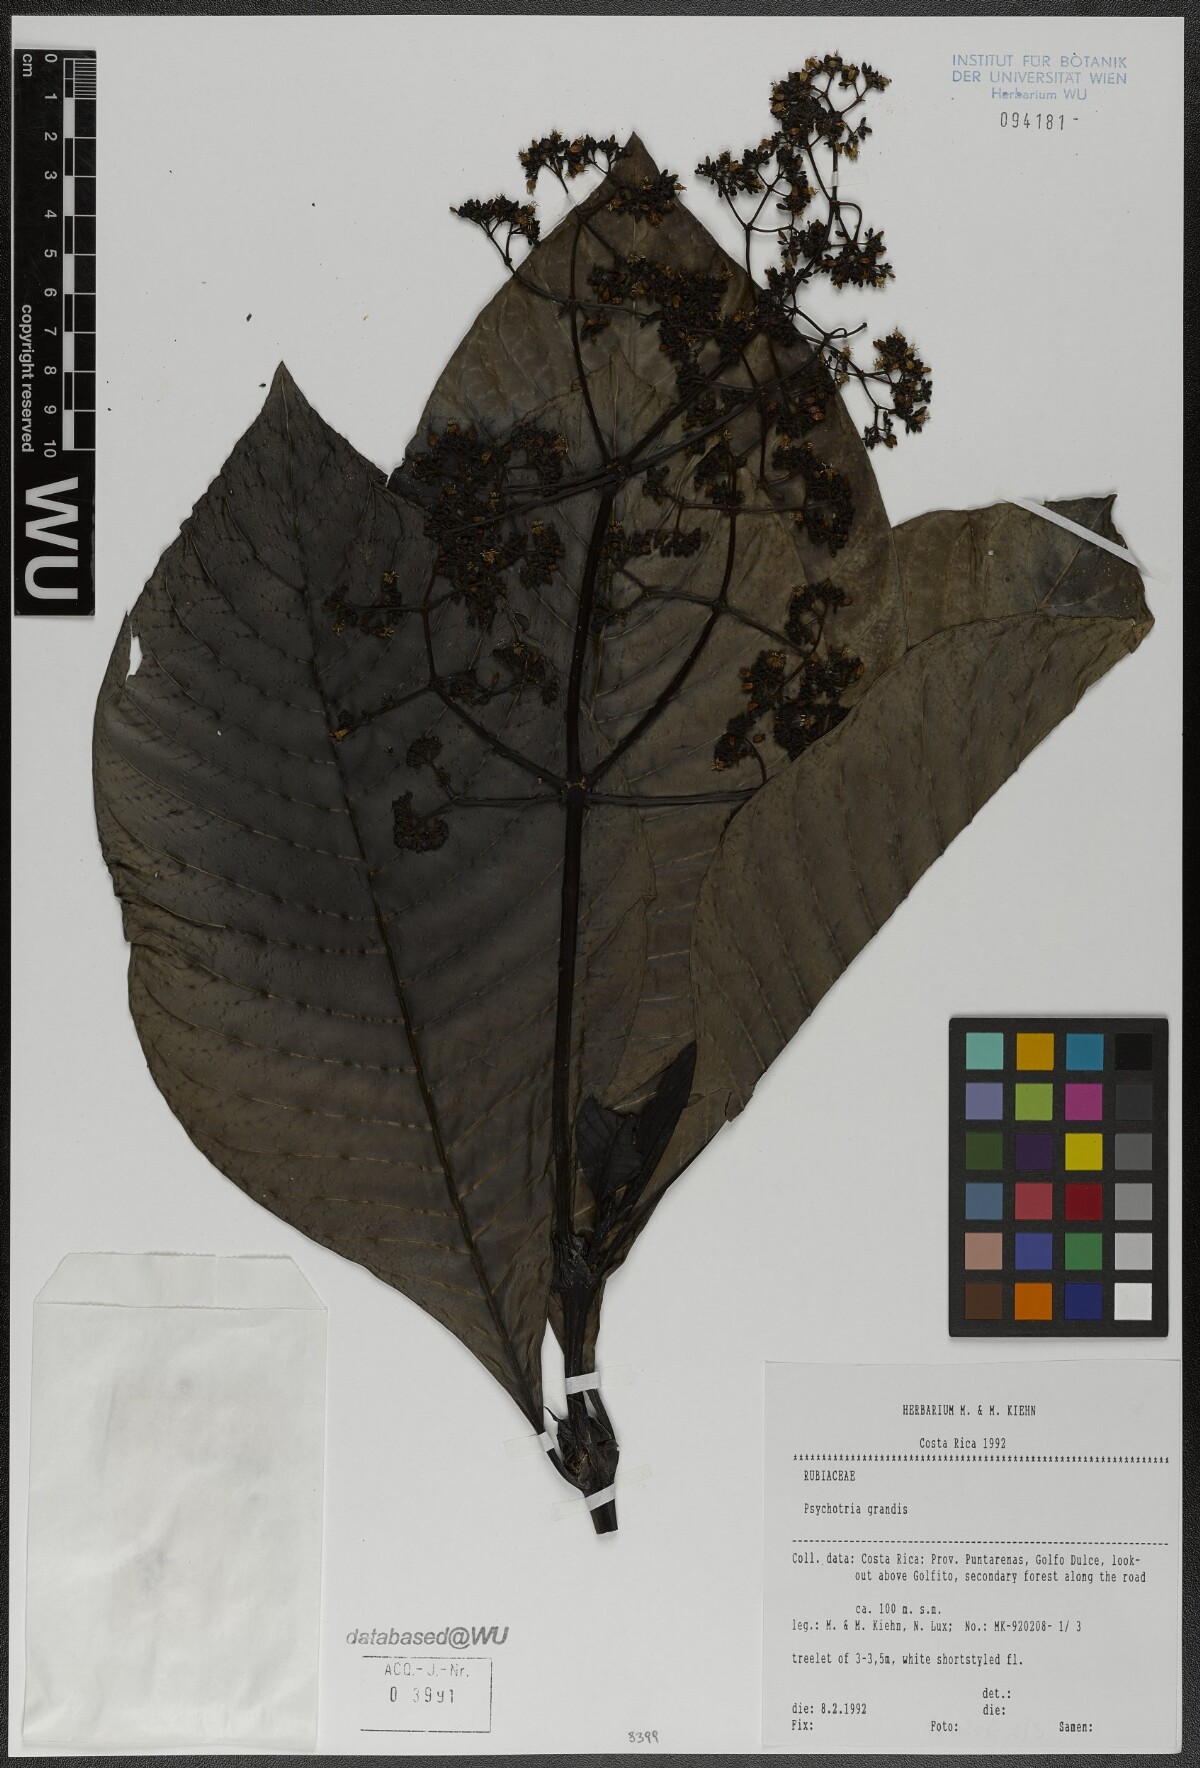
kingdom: Plantae
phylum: Tracheophyta
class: Magnoliopsida
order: Gentianales
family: Rubiaceae
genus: Psychotria
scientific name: Psychotria grandis
